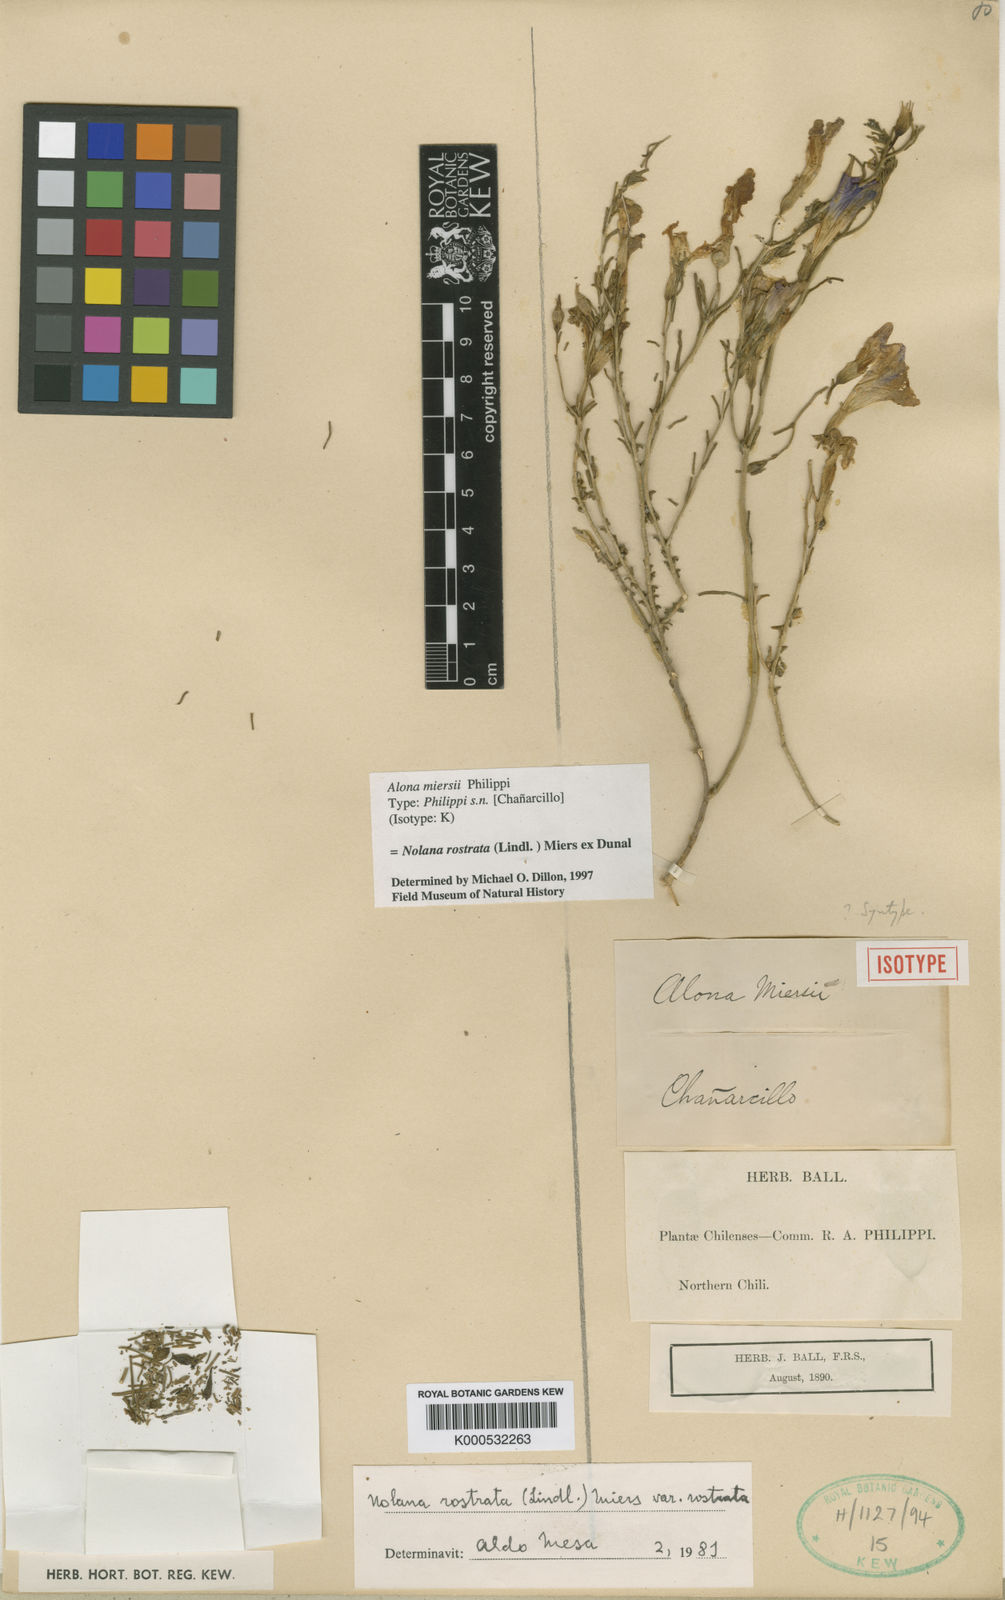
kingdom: Plantae
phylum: Tracheophyta
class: Magnoliopsida
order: Solanales
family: Solanaceae
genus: Nolana
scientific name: Nolana
